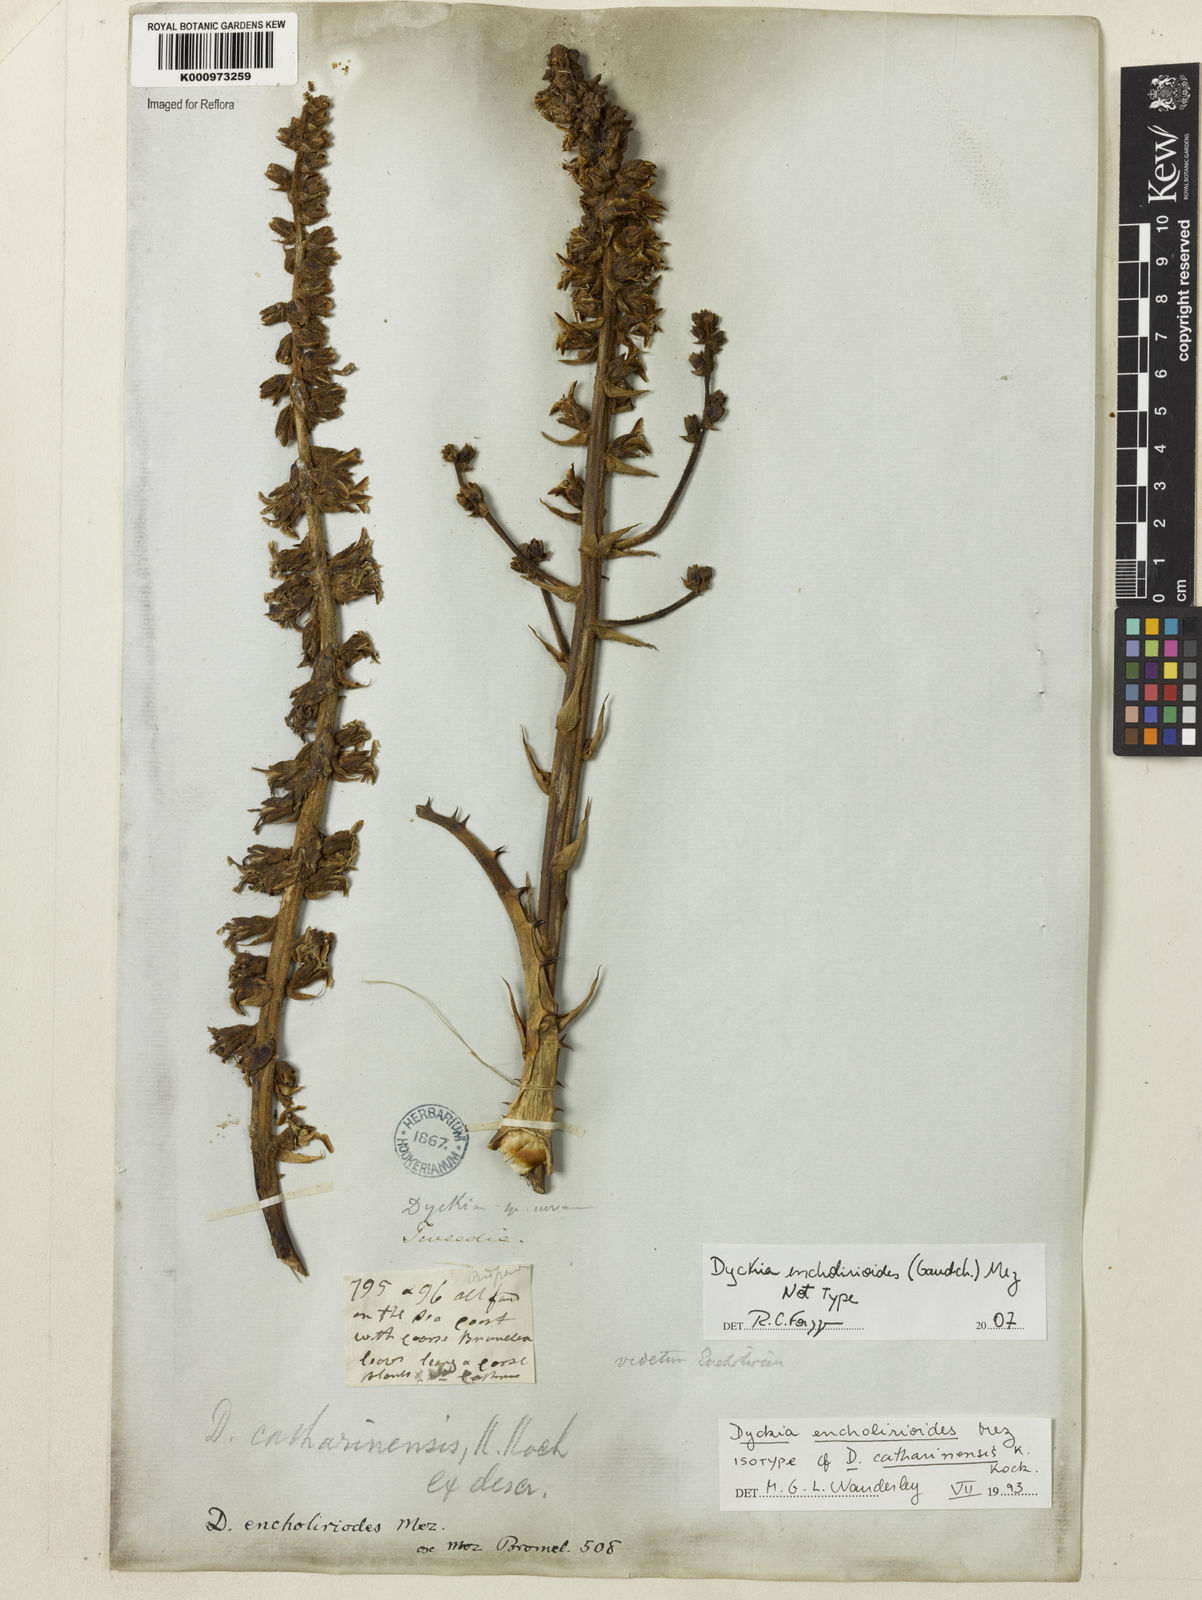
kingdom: Plantae
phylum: Tracheophyta
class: Liliopsida
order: Poales
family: Bromeliaceae
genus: Dyckia
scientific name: Dyckia encholirioides
